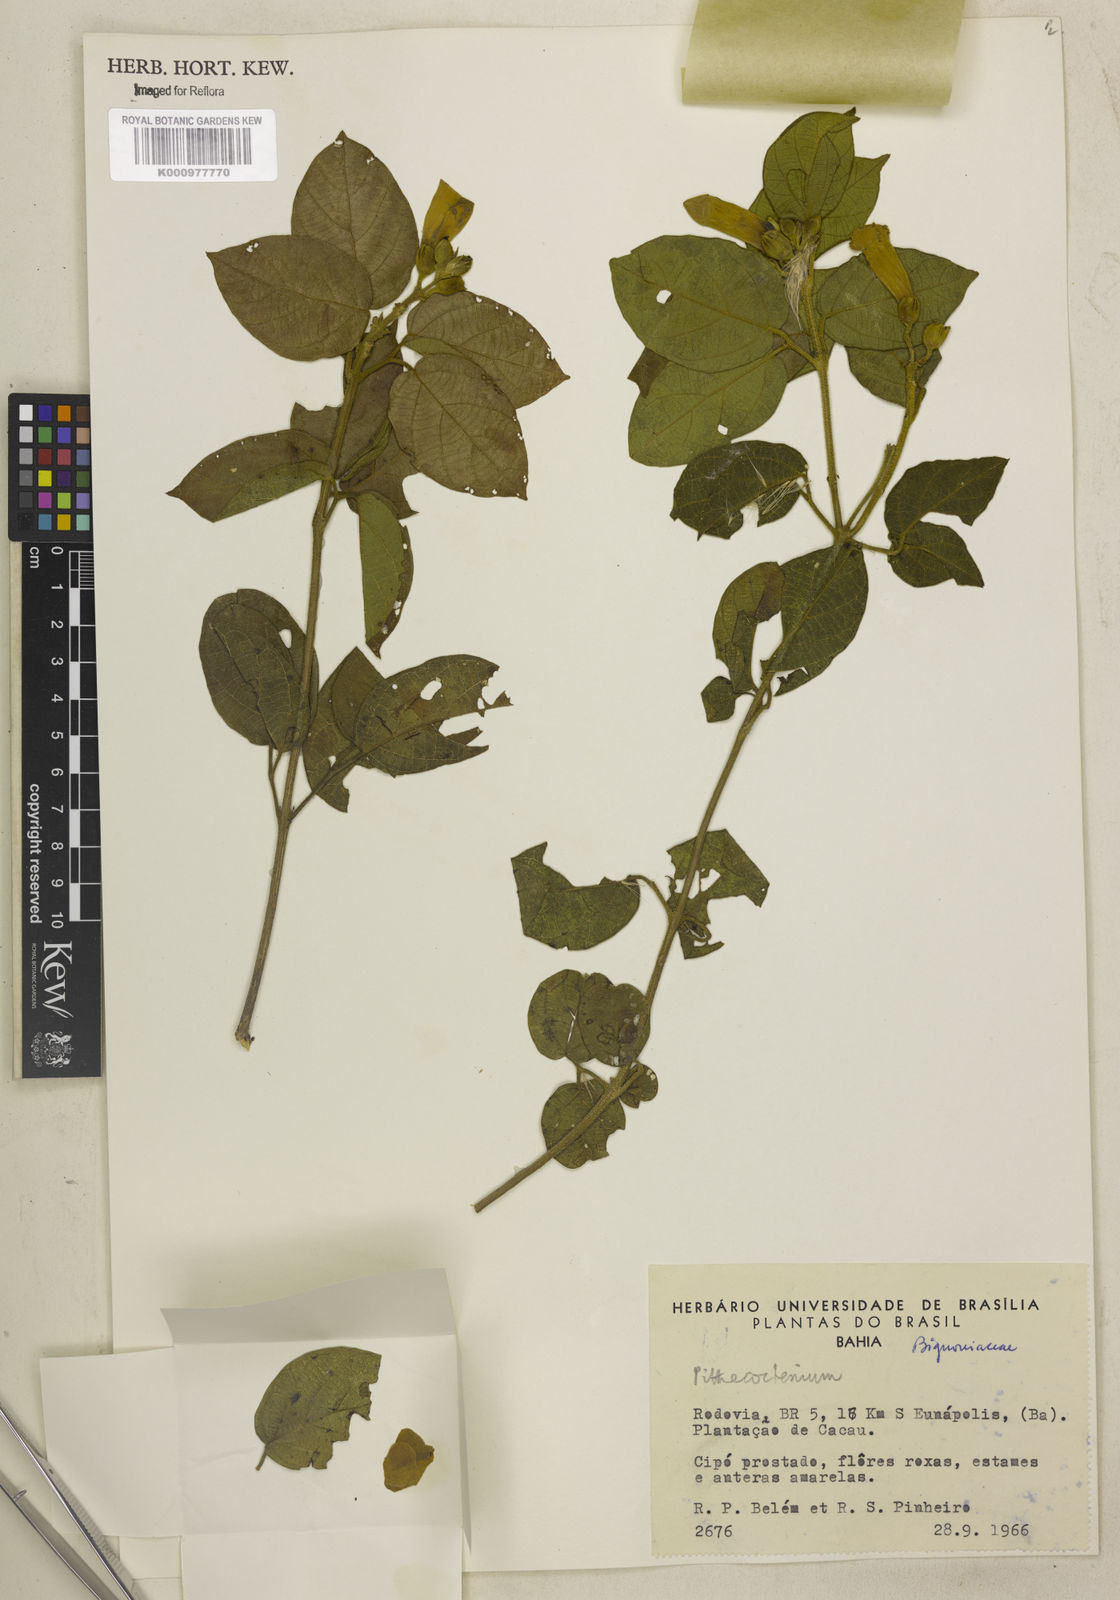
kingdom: Plantae
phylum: Tracheophyta
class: Magnoliopsida
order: Lamiales
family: Bignoniaceae
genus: Pithecoctenium
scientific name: Pithecoctenium
